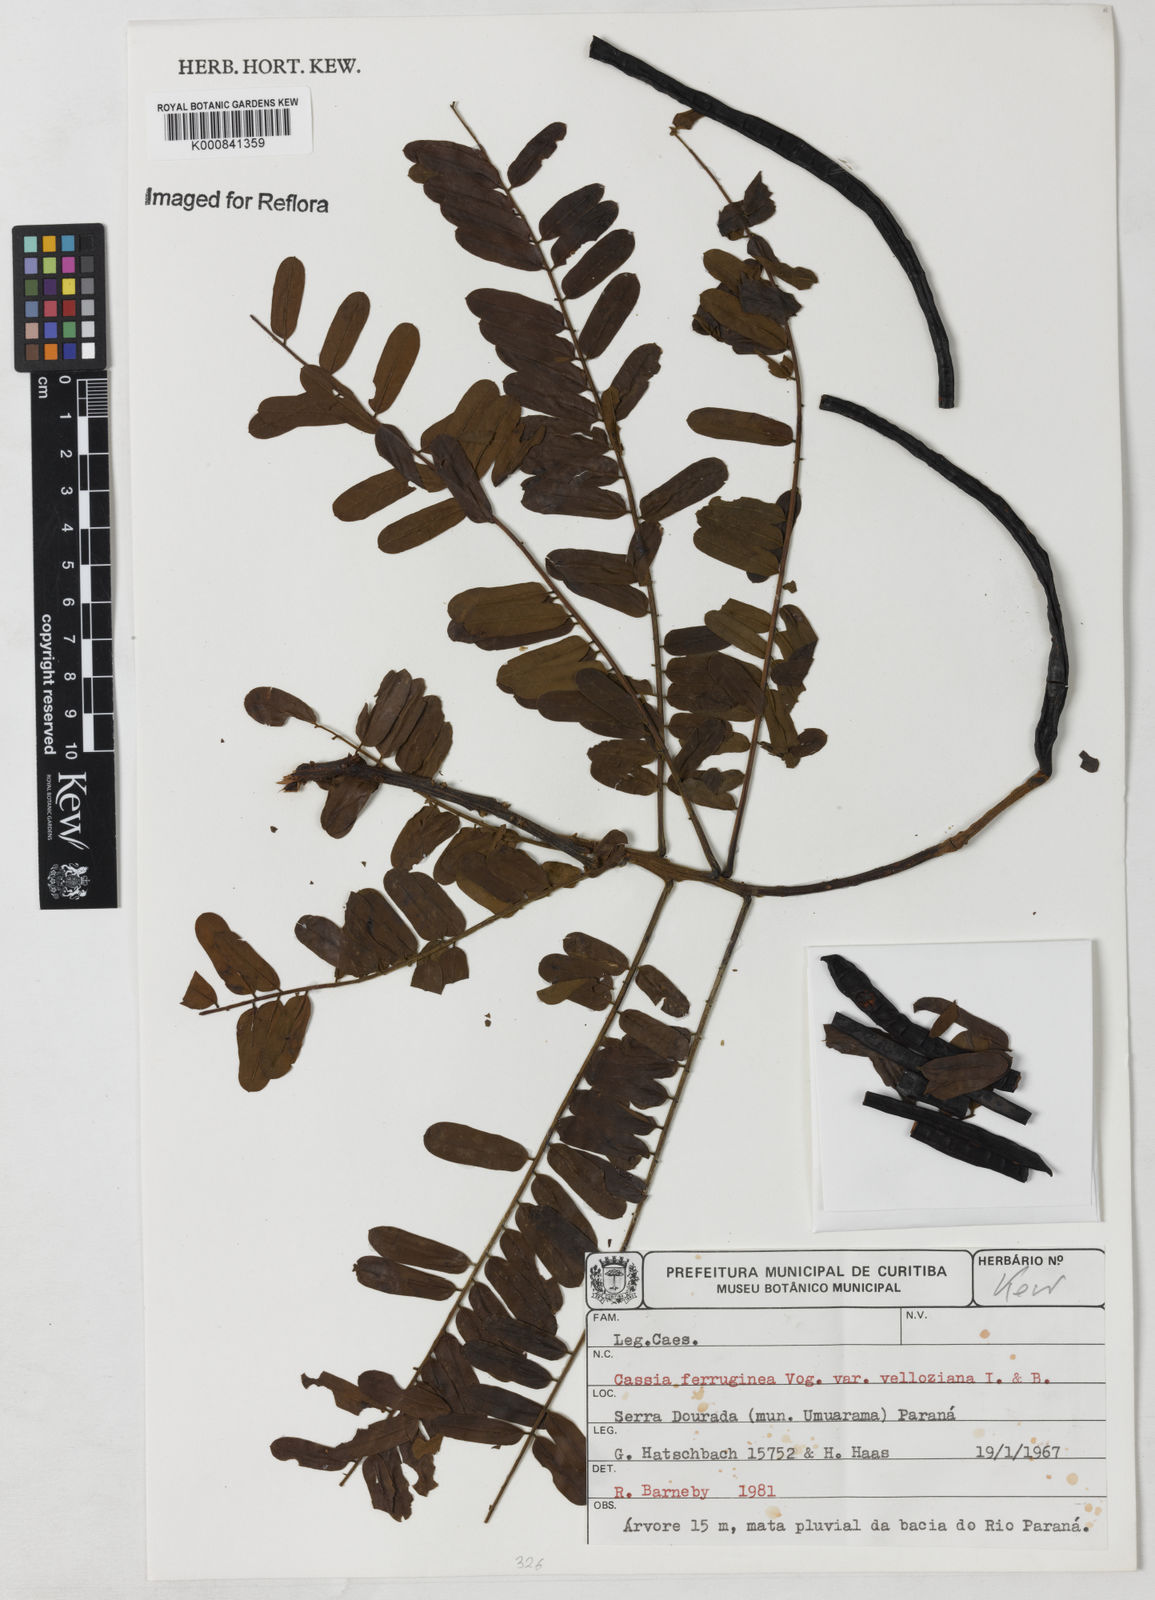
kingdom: Plantae
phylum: Tracheophyta
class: Magnoliopsida
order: Fabales
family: Fabaceae
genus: Cassia
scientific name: Cassia ferruginea
